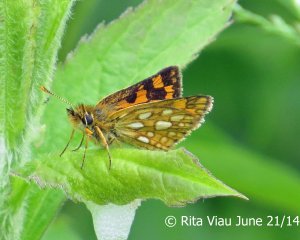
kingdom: Animalia
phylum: Arthropoda
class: Insecta
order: Lepidoptera
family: Hesperiidae
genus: Carterocephalus
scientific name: Carterocephalus palaemon
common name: Chequered Skipper
